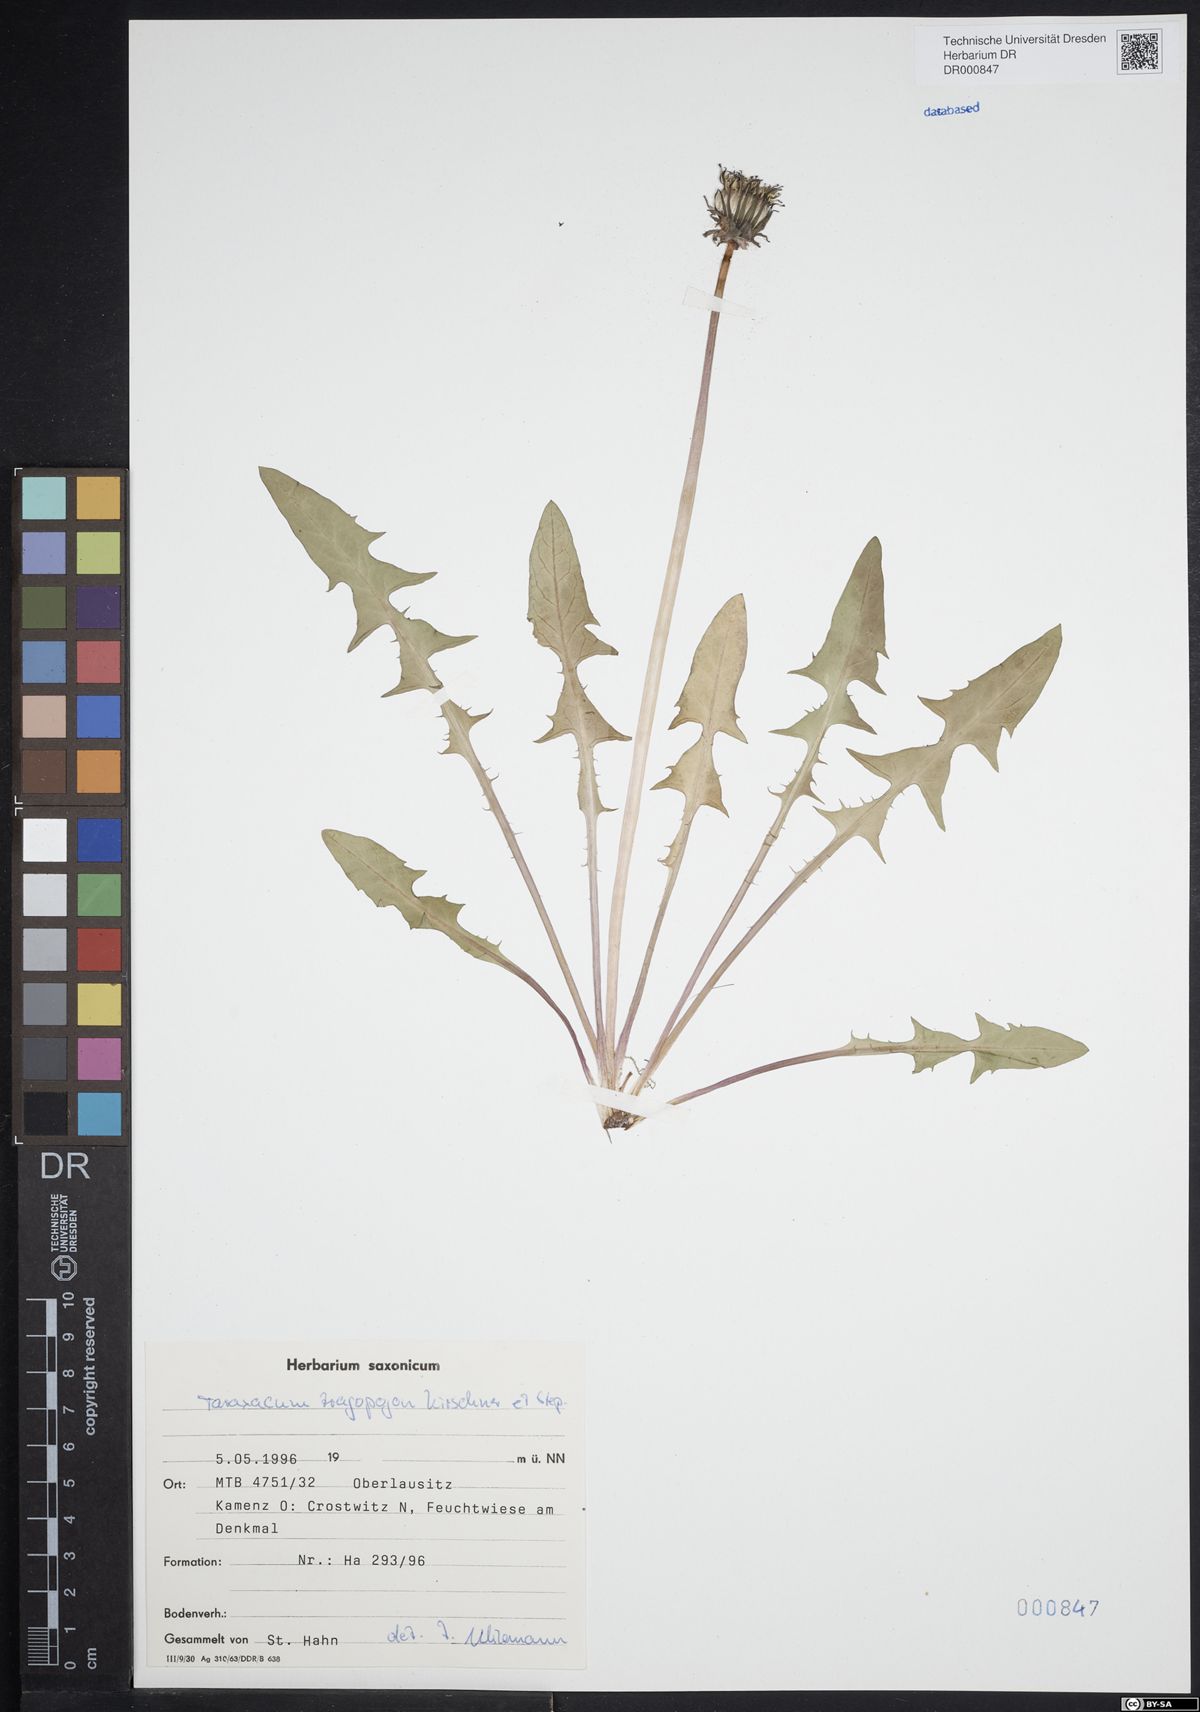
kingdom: Plantae
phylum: Tracheophyta
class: Magnoliopsida
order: Asterales
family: Asteraceae
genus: Taraxacum
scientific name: Taraxacum porrigentilobatum
